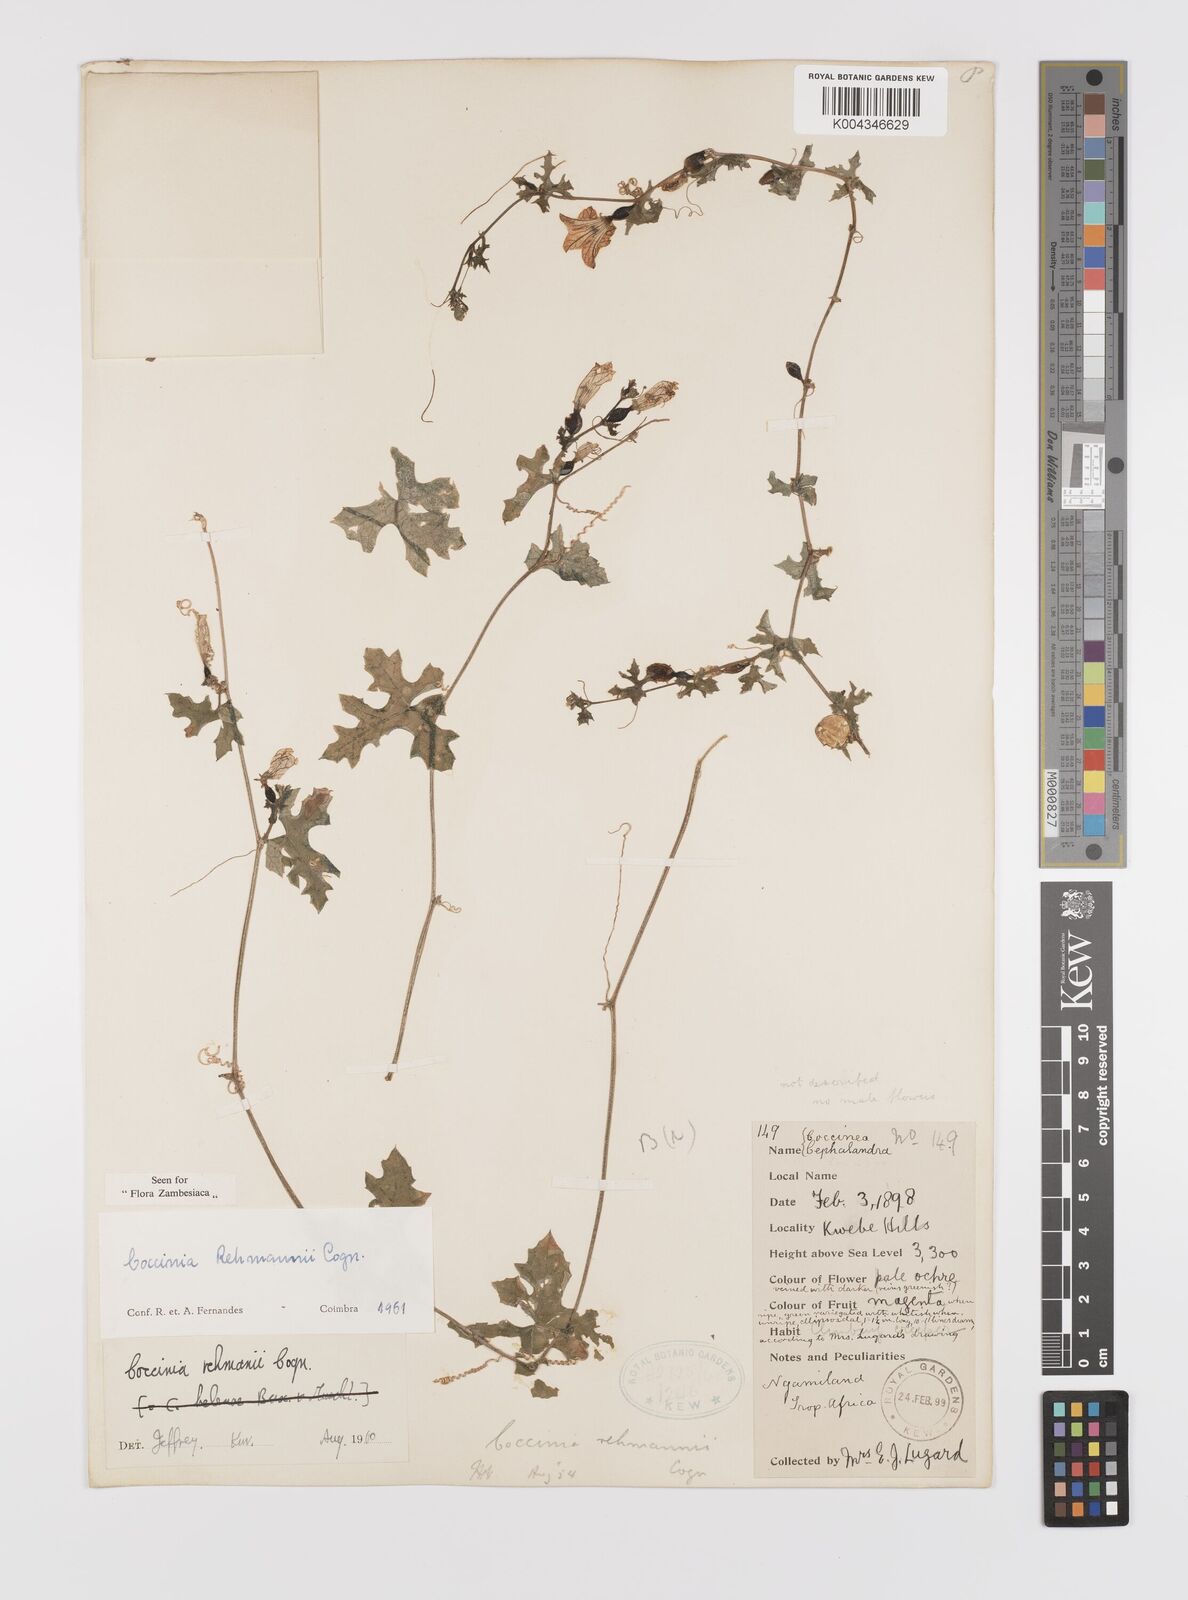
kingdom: Plantae
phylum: Tracheophyta
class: Magnoliopsida
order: Cucurbitales
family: Cucurbitaceae
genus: Coccinia
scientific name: Coccinia rehmannii
